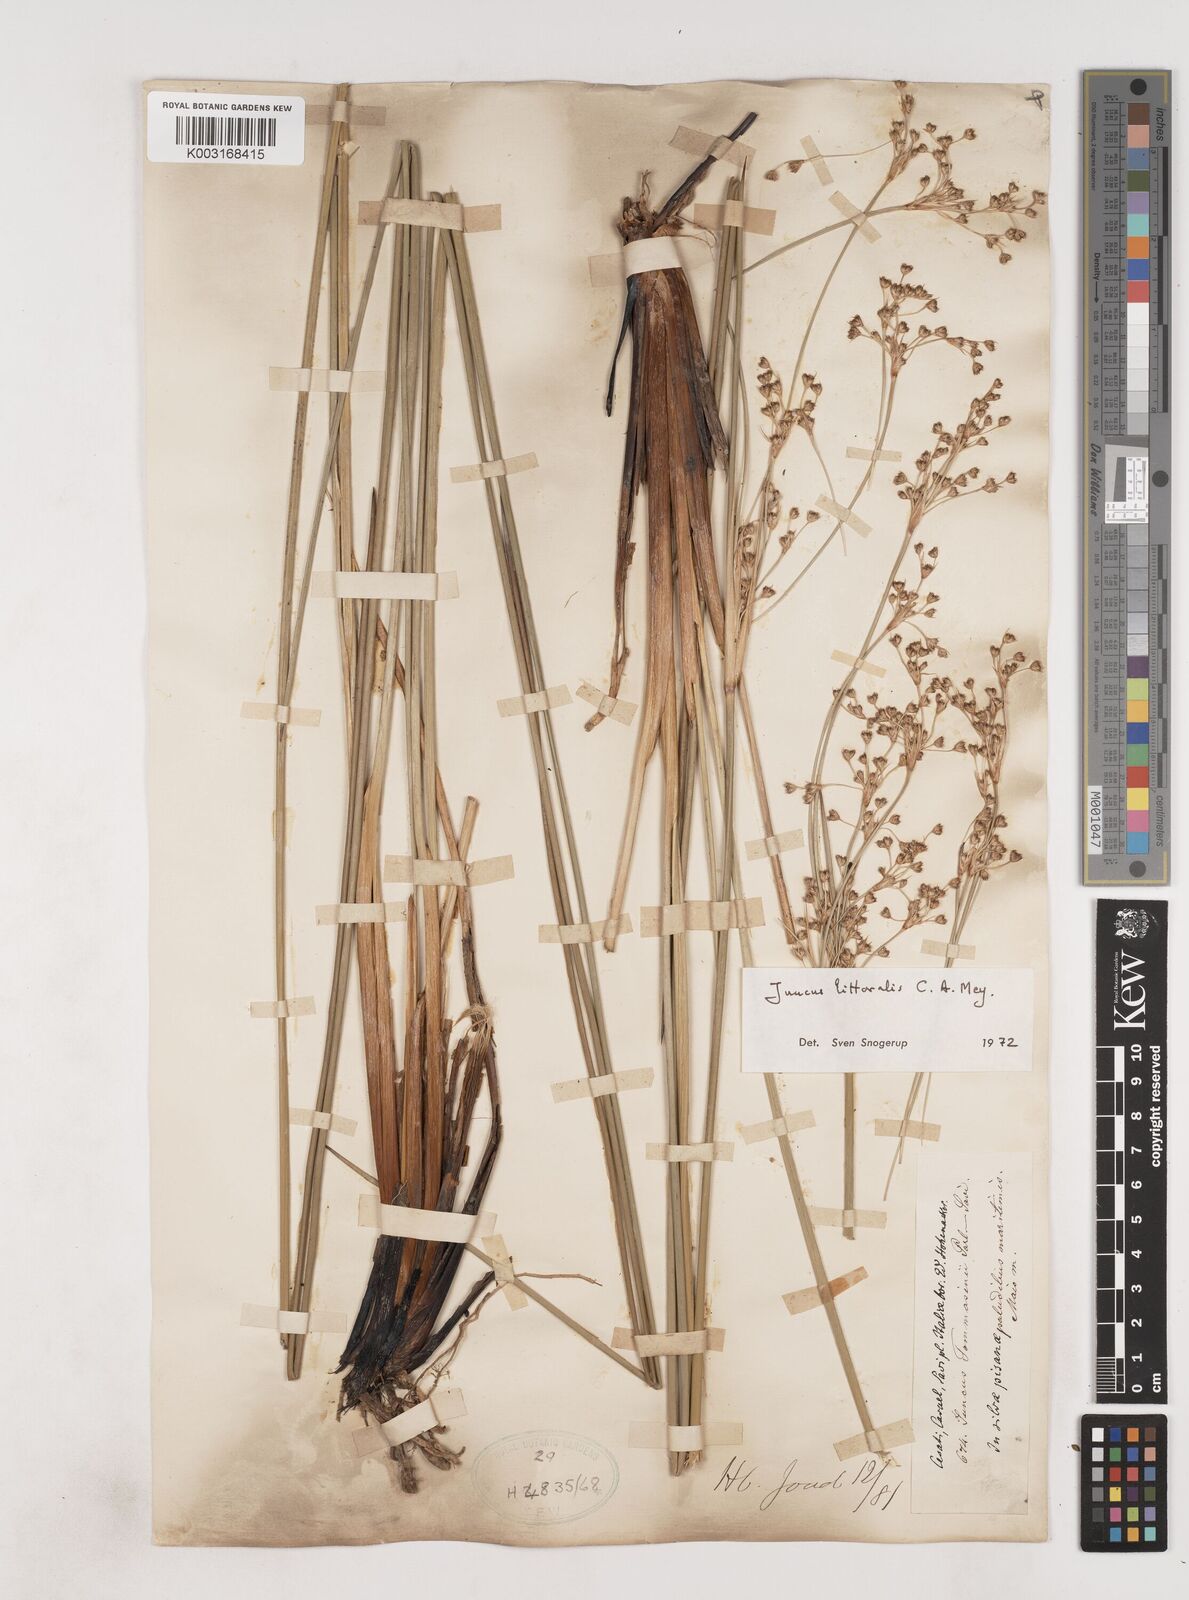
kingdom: Plantae
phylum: Tracheophyta
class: Liliopsida
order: Poales
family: Juncaceae
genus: Juncus
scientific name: Juncus
